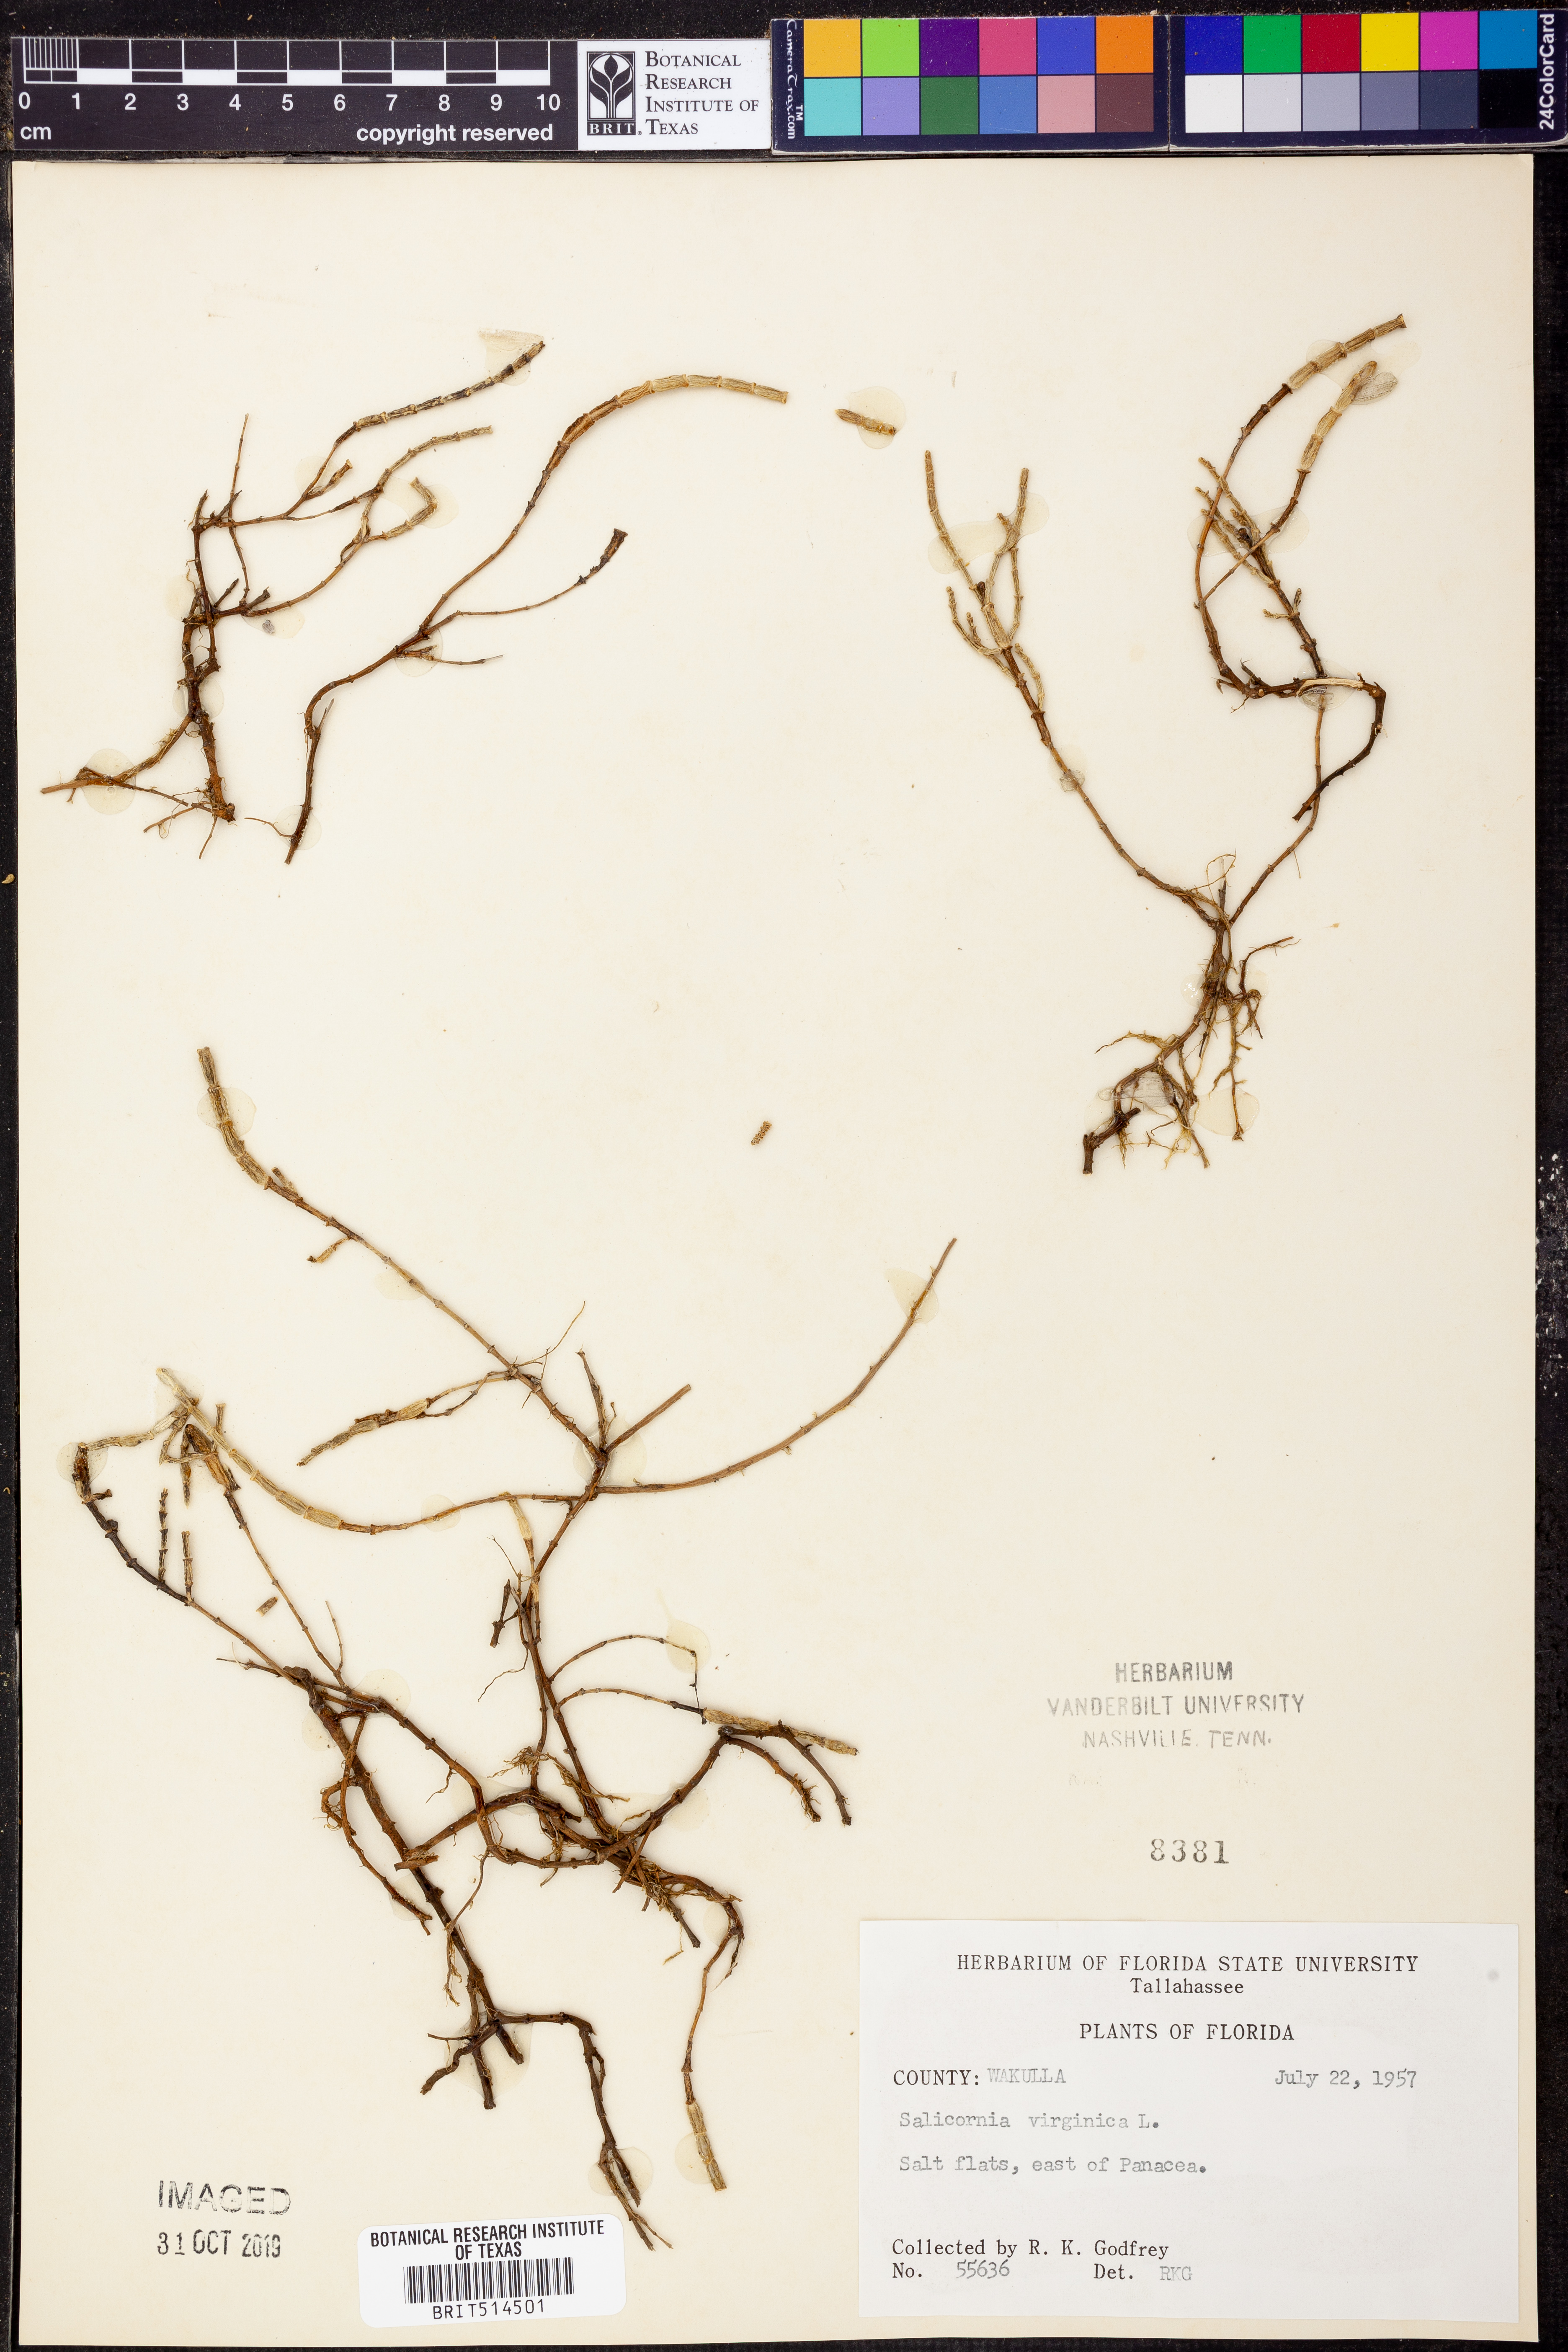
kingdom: Plantae
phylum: Tracheophyta
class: Magnoliopsida
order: Caryophyllales
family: Amaranthaceae
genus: Salicornia
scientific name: Salicornia virginica
